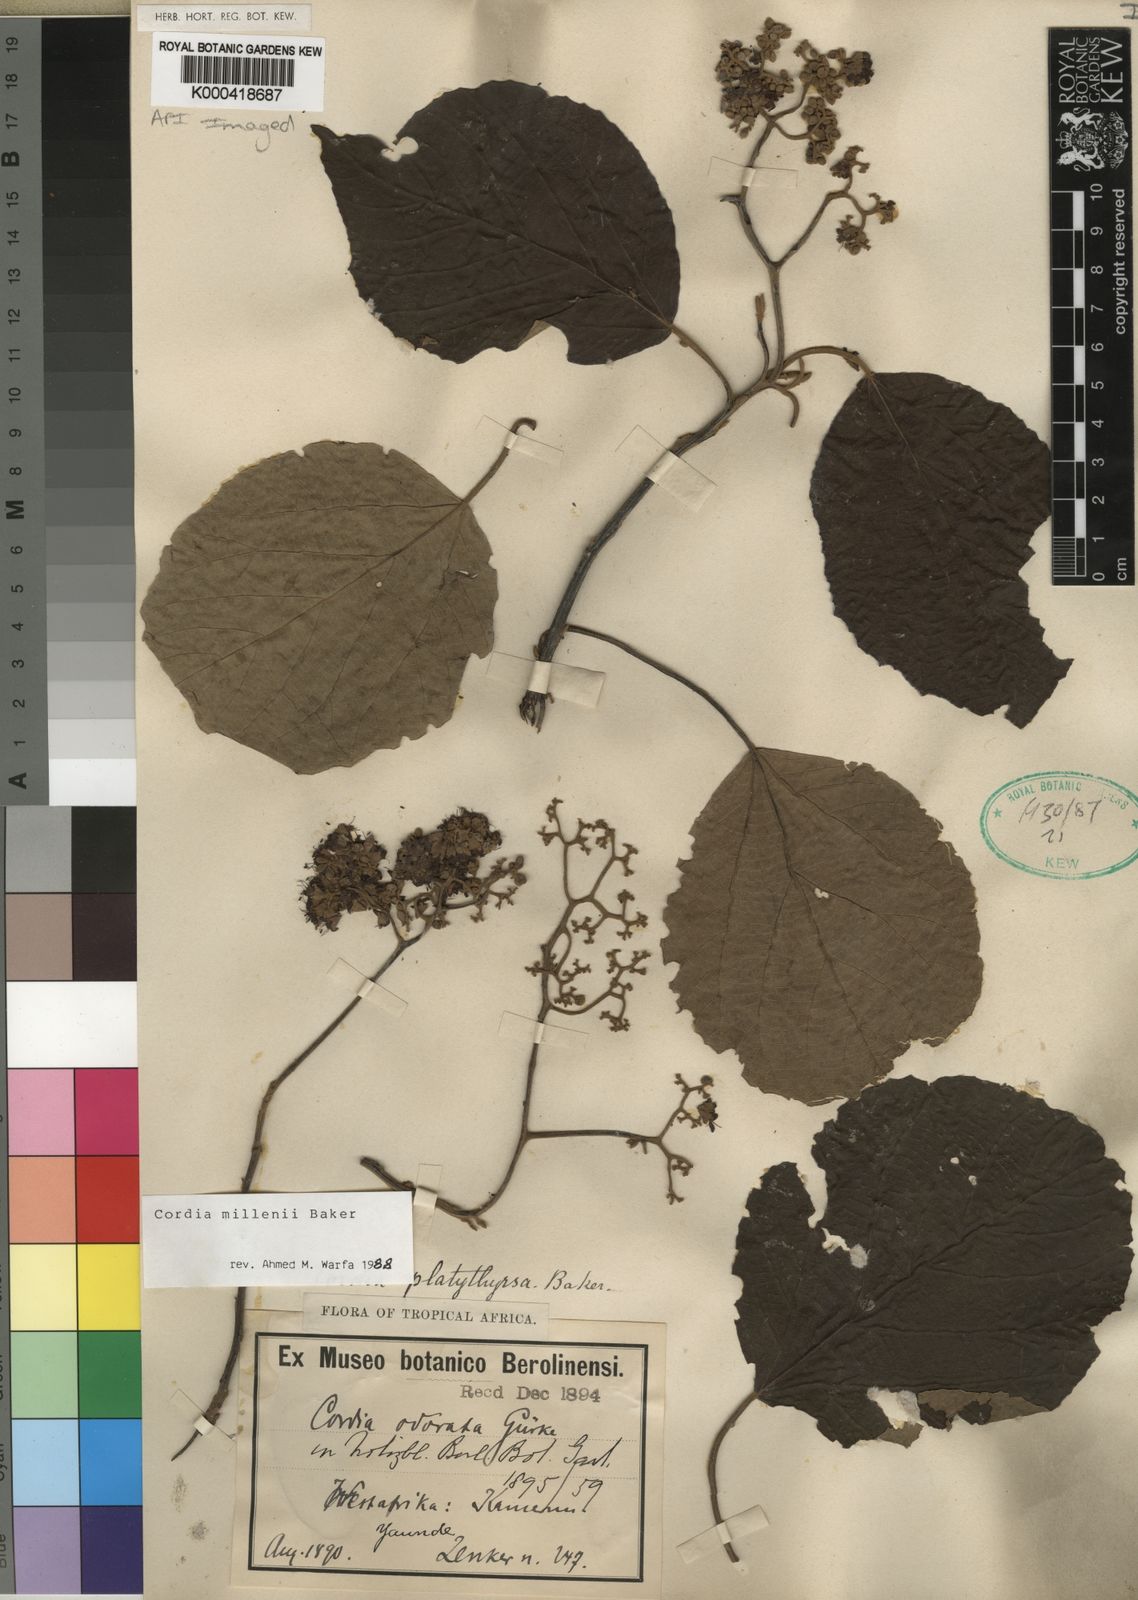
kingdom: Plantae
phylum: Tracheophyta
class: Magnoliopsida
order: Boraginales
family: Cordiaceae
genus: Cordia
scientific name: Cordia millenii
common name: Drum tree
